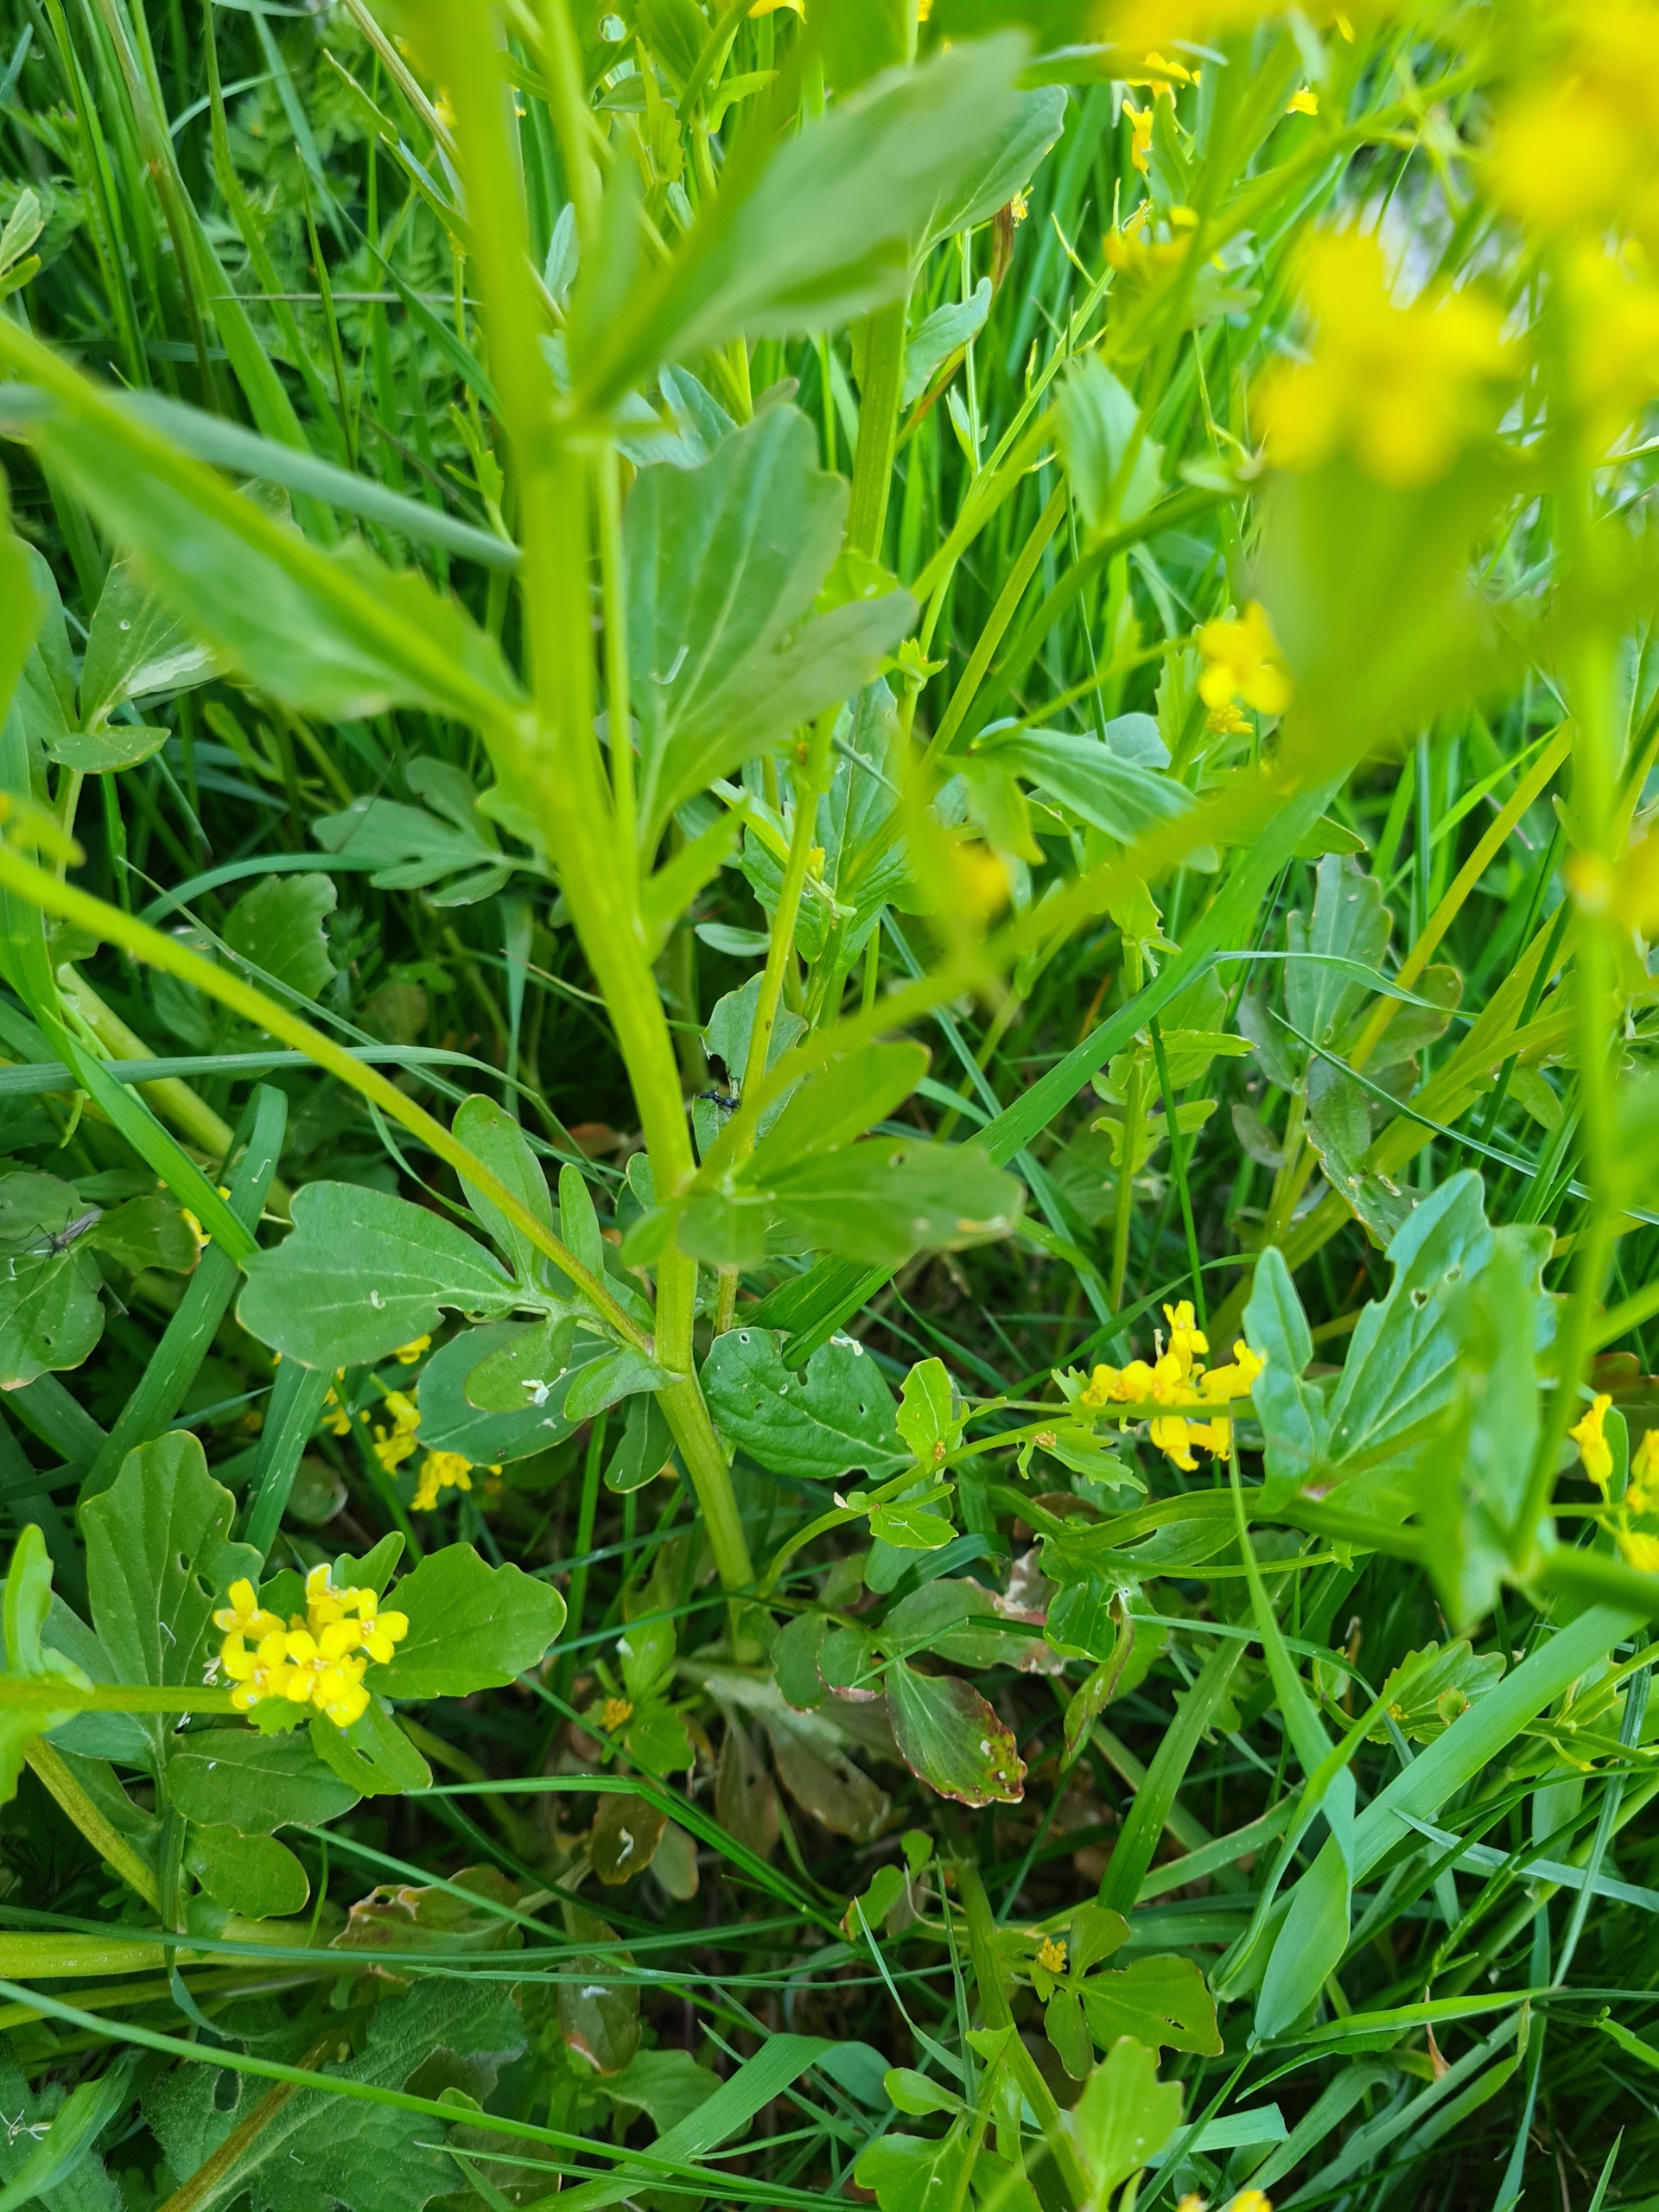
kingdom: Plantae
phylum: Tracheophyta
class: Magnoliopsida
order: Brassicales
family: Brassicaceae
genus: Barbarea
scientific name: Barbarea vulgaris
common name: Udspærret vinterkarse
